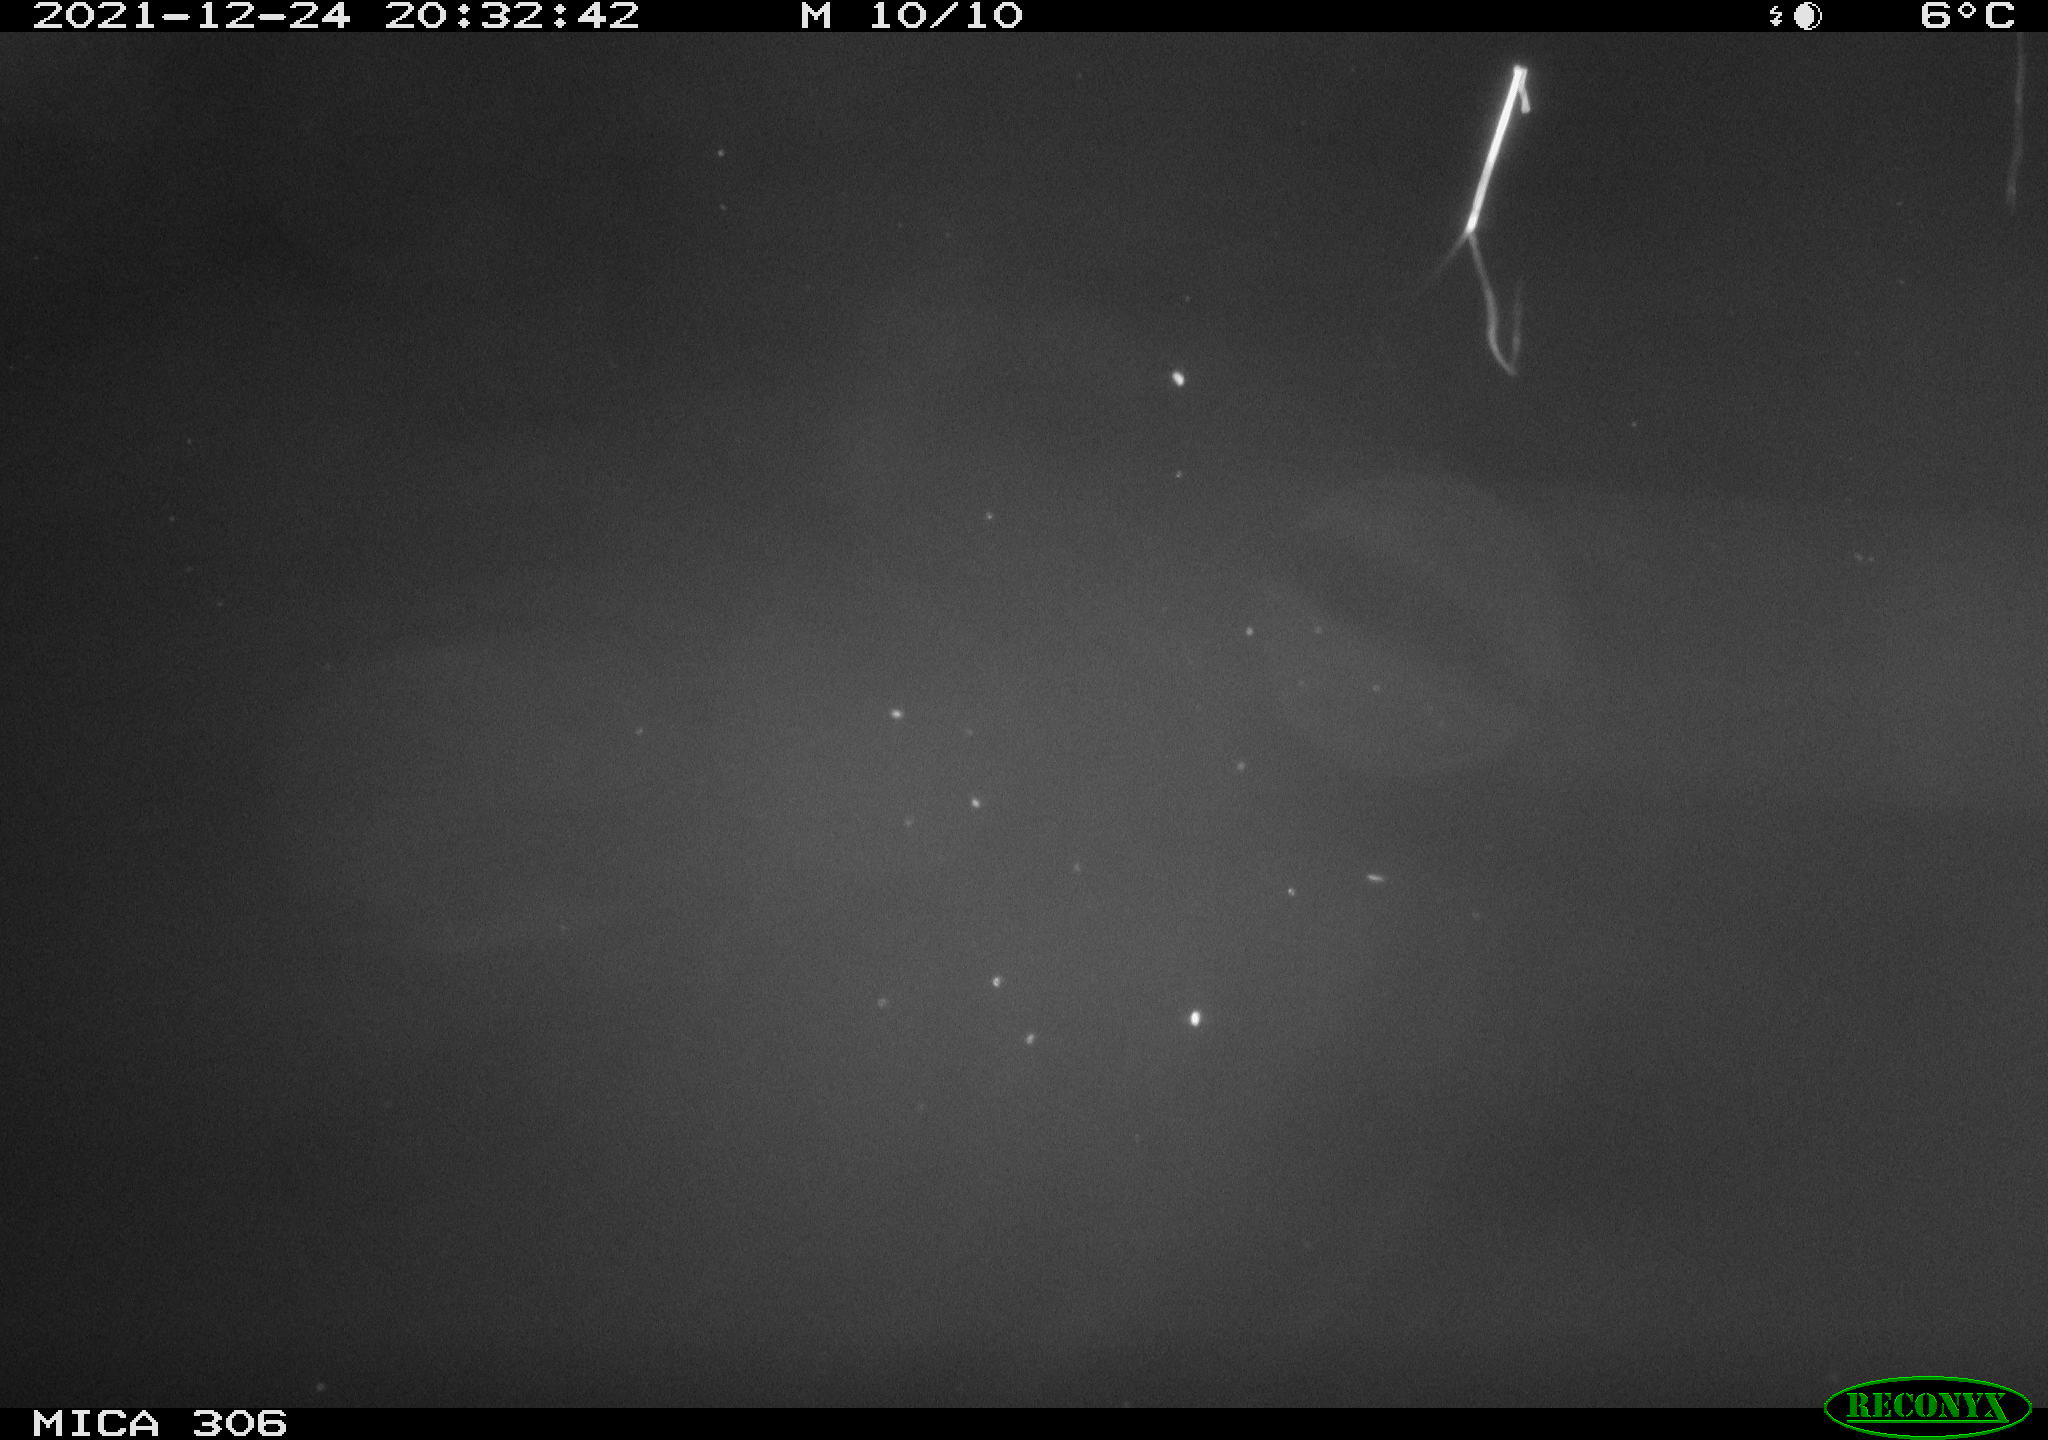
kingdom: Animalia
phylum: Chordata
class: Mammalia
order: Rodentia
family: Cricetidae
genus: Ondatra
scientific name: Ondatra zibethicus
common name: Muskrat
